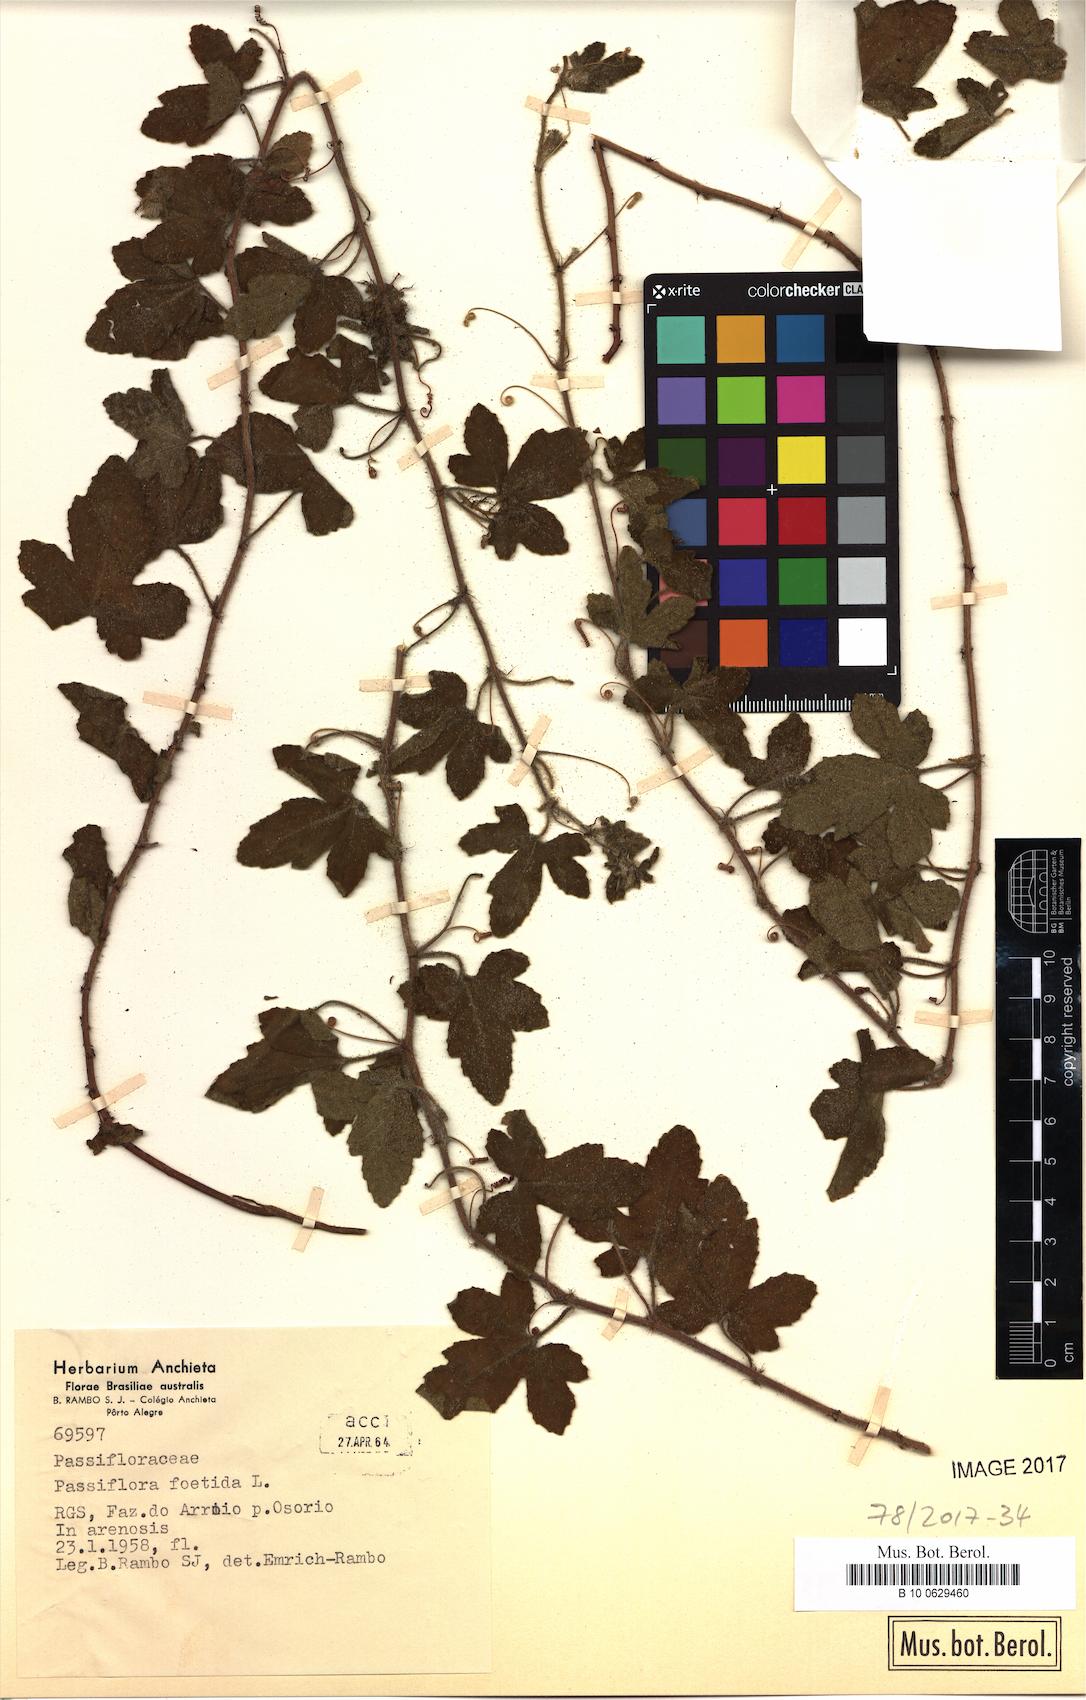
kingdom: Plantae
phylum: Tracheophyta
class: Magnoliopsida
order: Malpighiales
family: Passifloraceae
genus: Passiflora
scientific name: Passiflora foetida
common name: Fetid passionflower
